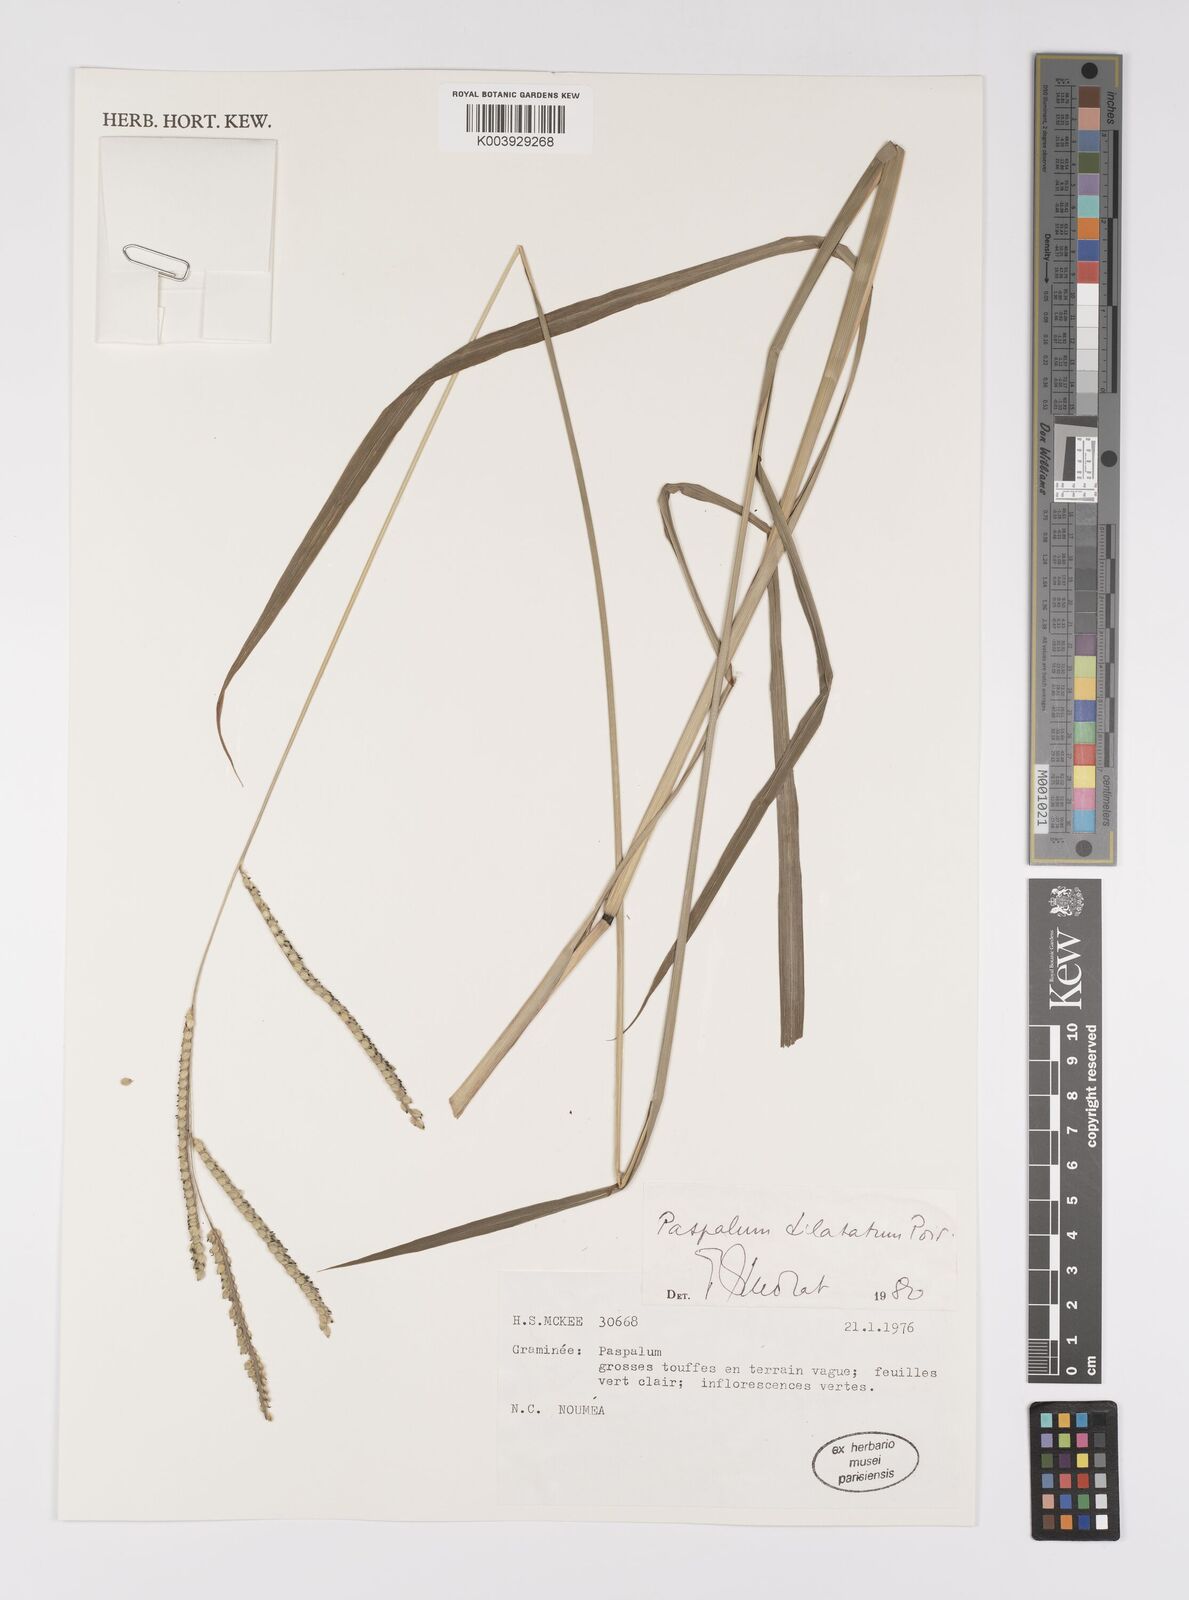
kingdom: Plantae
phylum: Tracheophyta
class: Liliopsida
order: Poales
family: Poaceae
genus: Paspalum
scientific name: Paspalum dilatatum
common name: Dallisgrass
